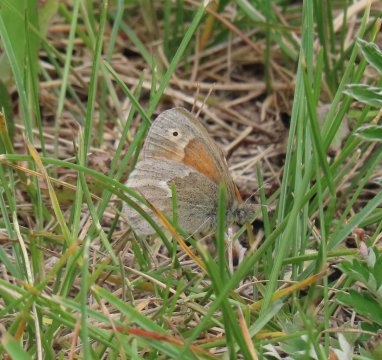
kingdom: Animalia
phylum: Arthropoda
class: Insecta
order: Lepidoptera
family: Nymphalidae
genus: Coenonympha
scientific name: Coenonympha tullia
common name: Large Heath
